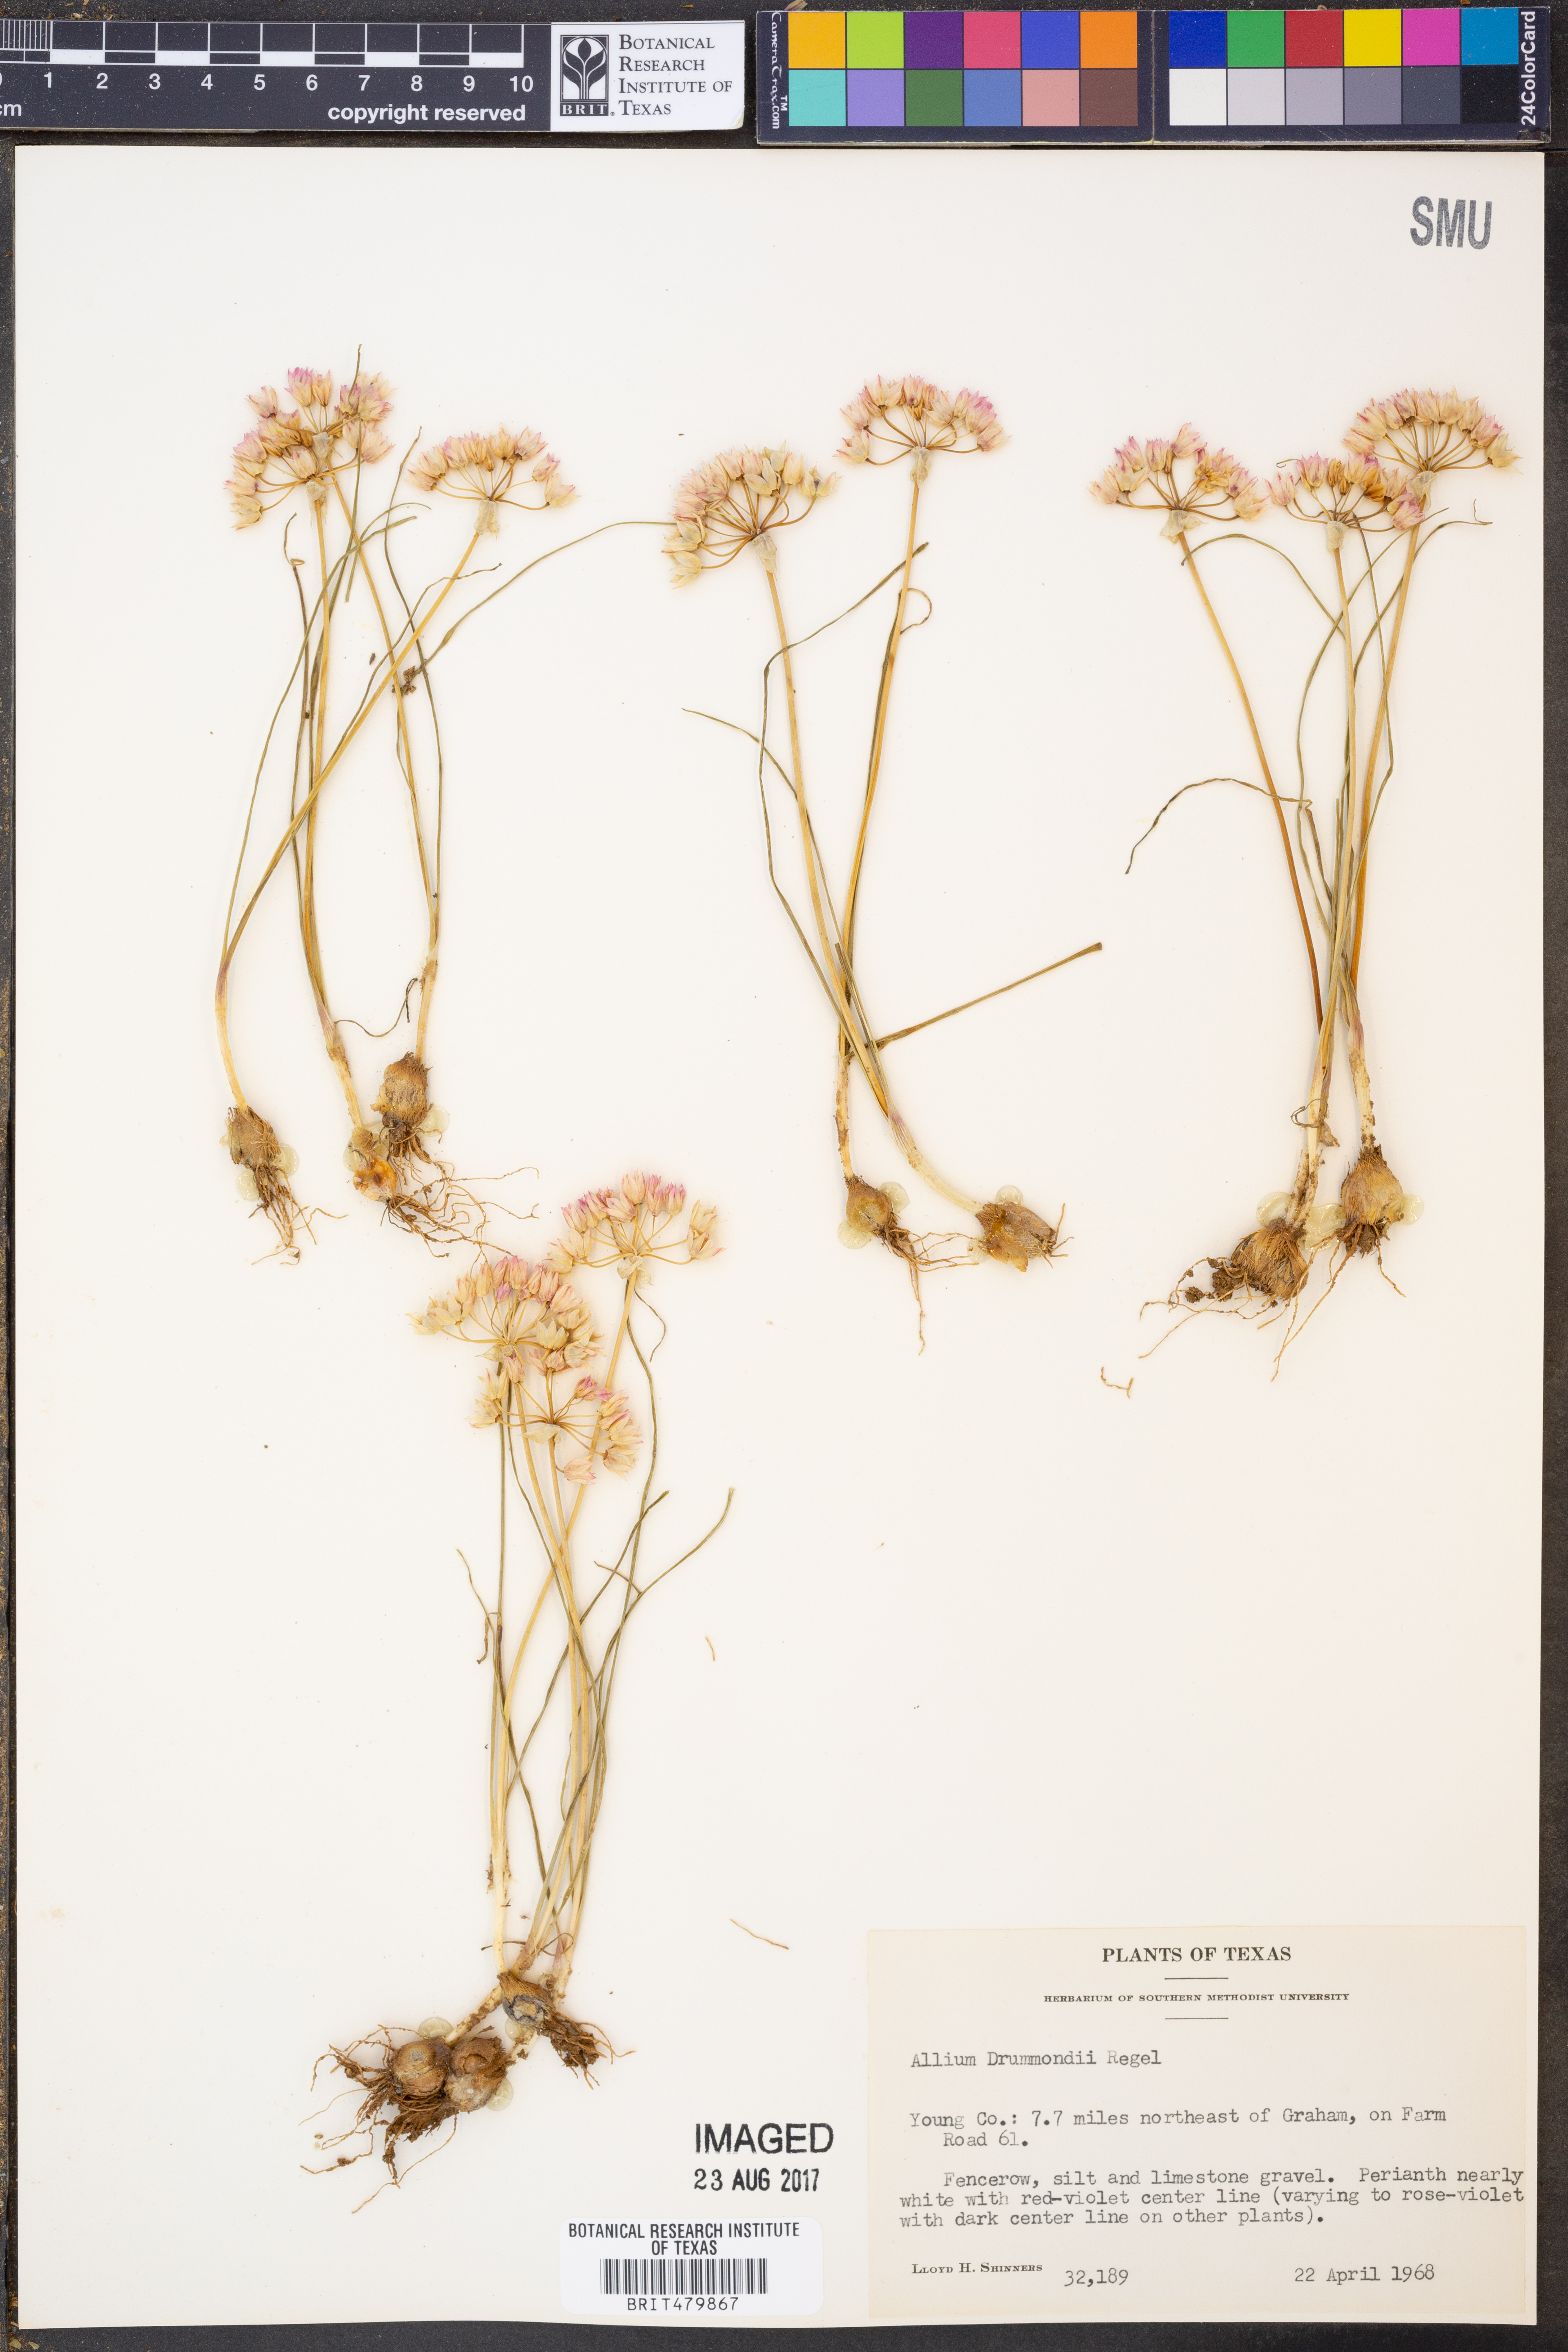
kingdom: Plantae
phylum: Tracheophyta
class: Liliopsida
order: Asparagales
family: Amaryllidaceae
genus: Allium
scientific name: Allium drummondii
